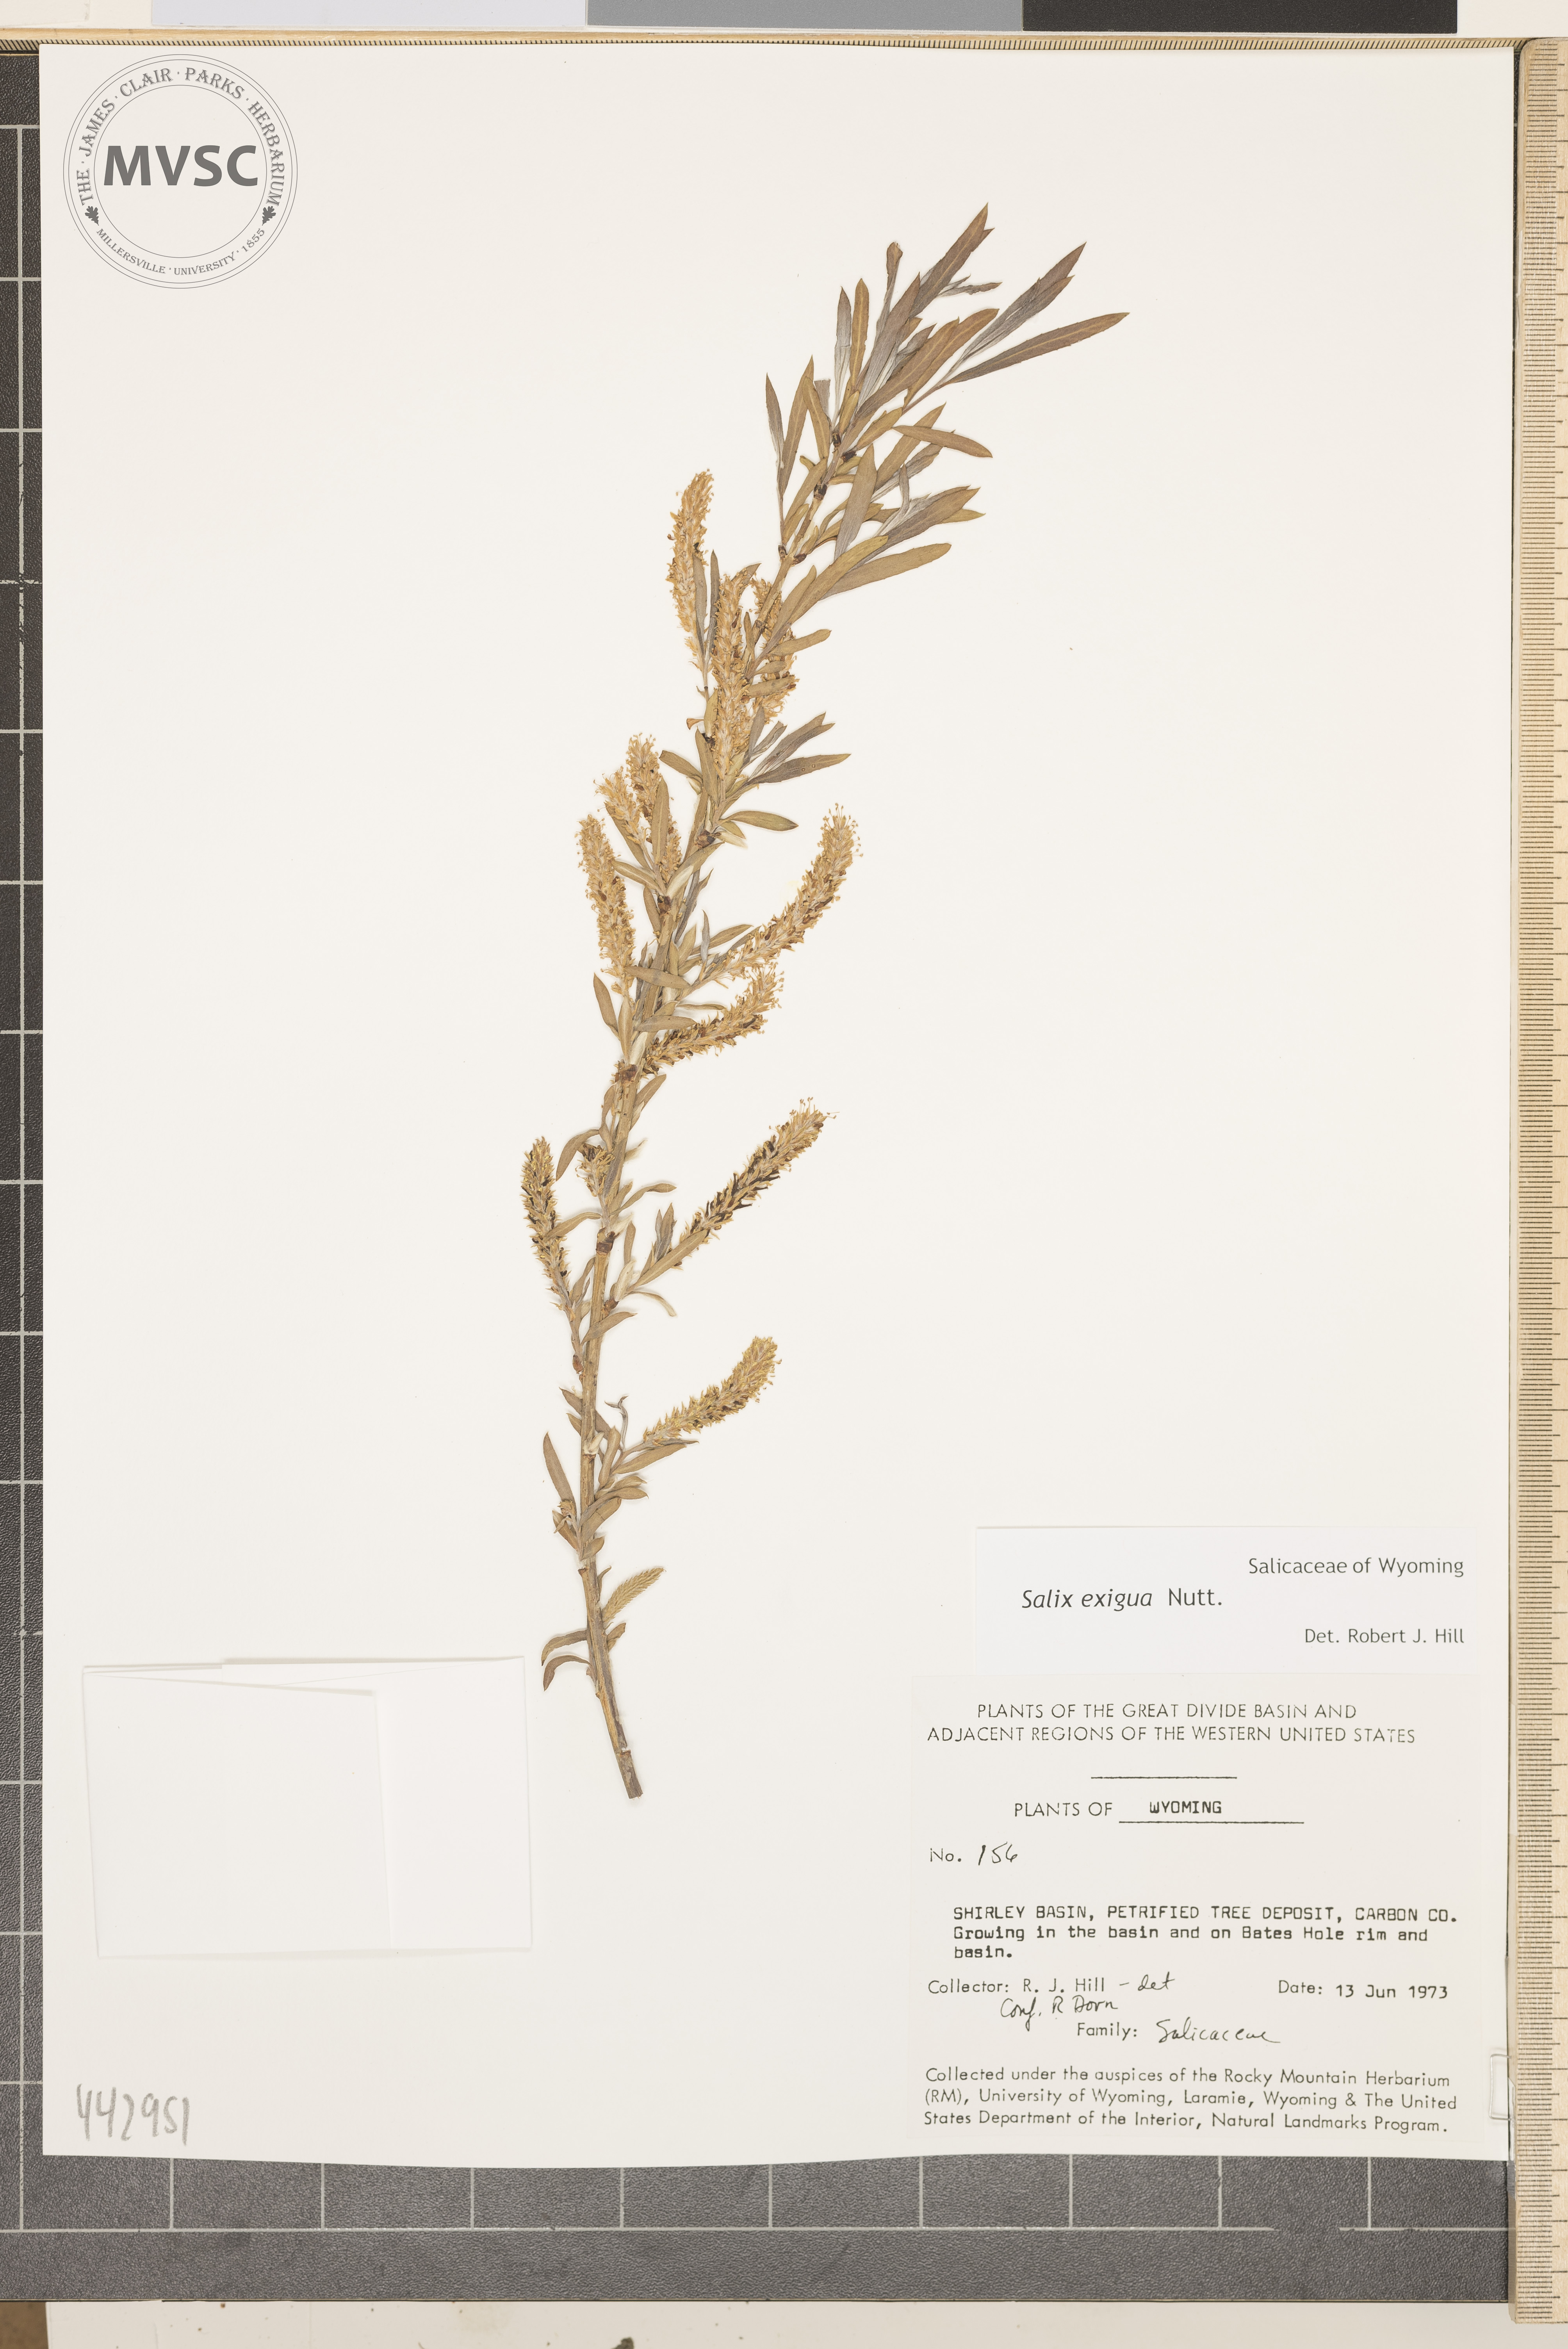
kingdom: Plantae
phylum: Tracheophyta
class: Magnoliopsida
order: Malpighiales
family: Salicaceae
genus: Salix
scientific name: Salix exigua
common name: Coyote willow
